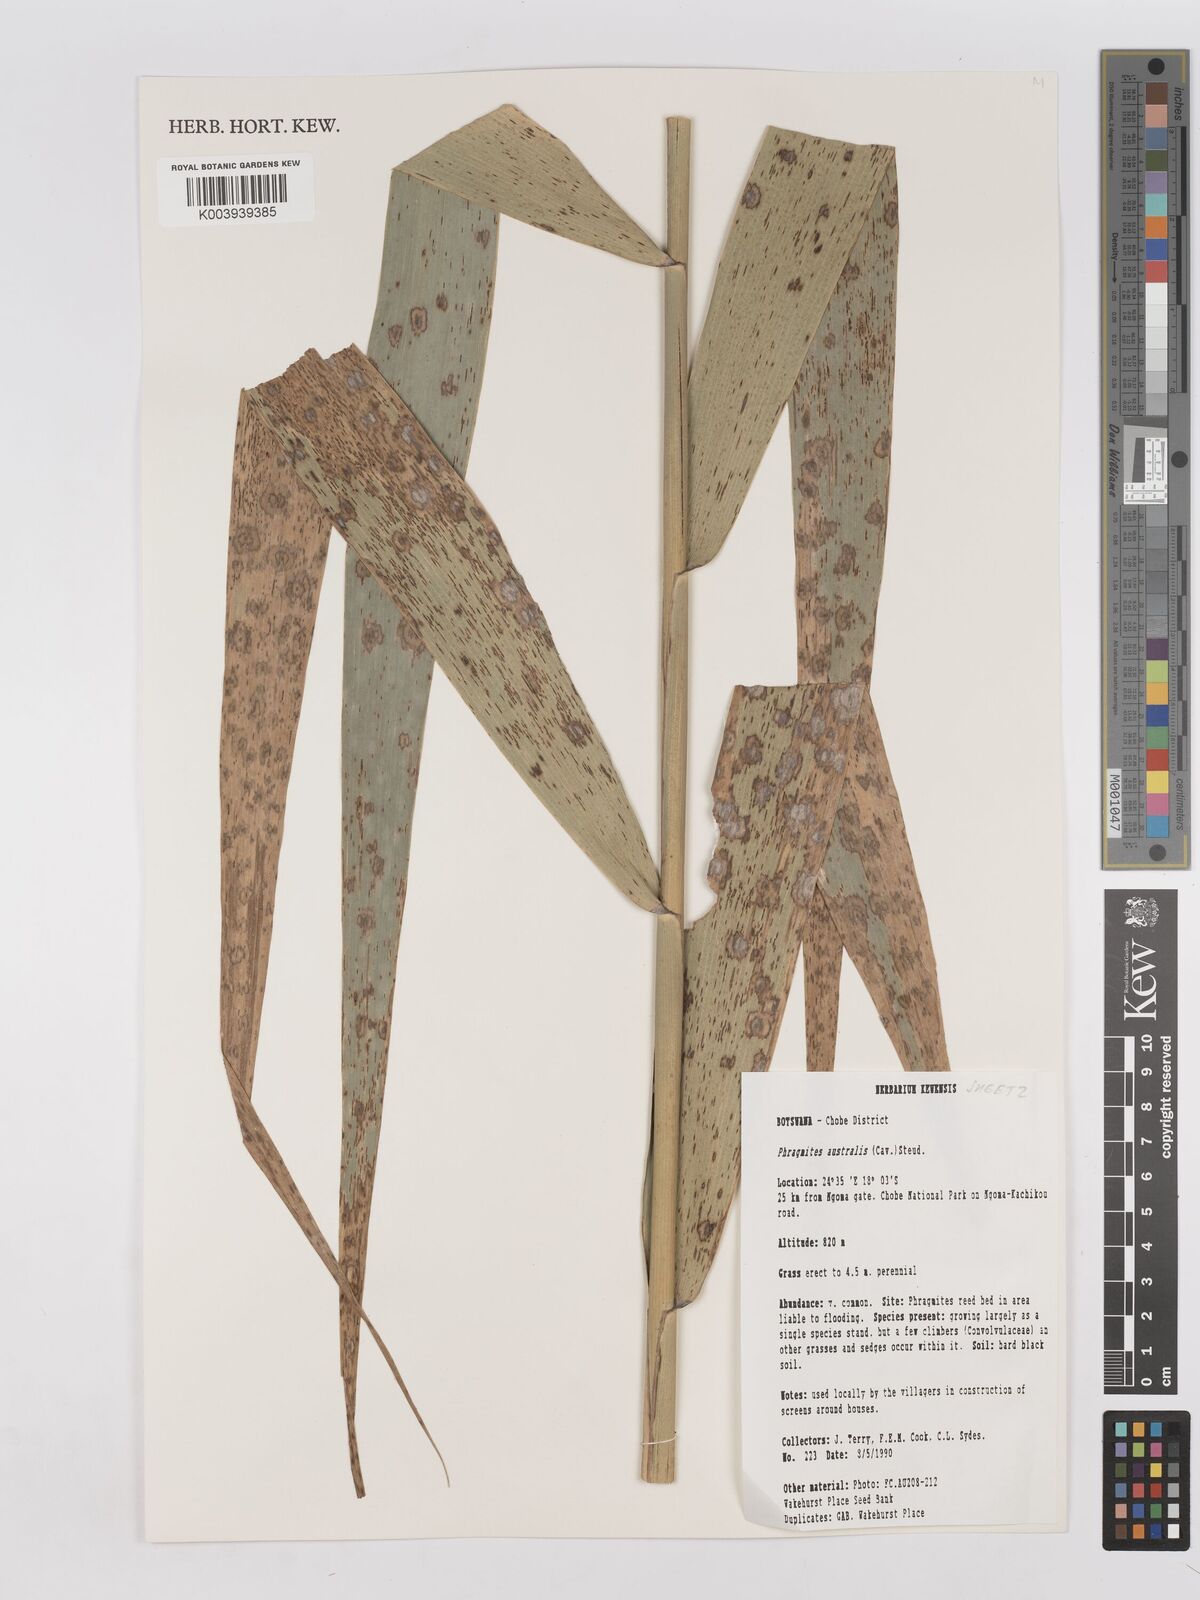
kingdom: Plantae
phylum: Tracheophyta
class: Liliopsida
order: Poales
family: Poaceae
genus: Phragmites
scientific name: Phragmites australis
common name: Common reed
